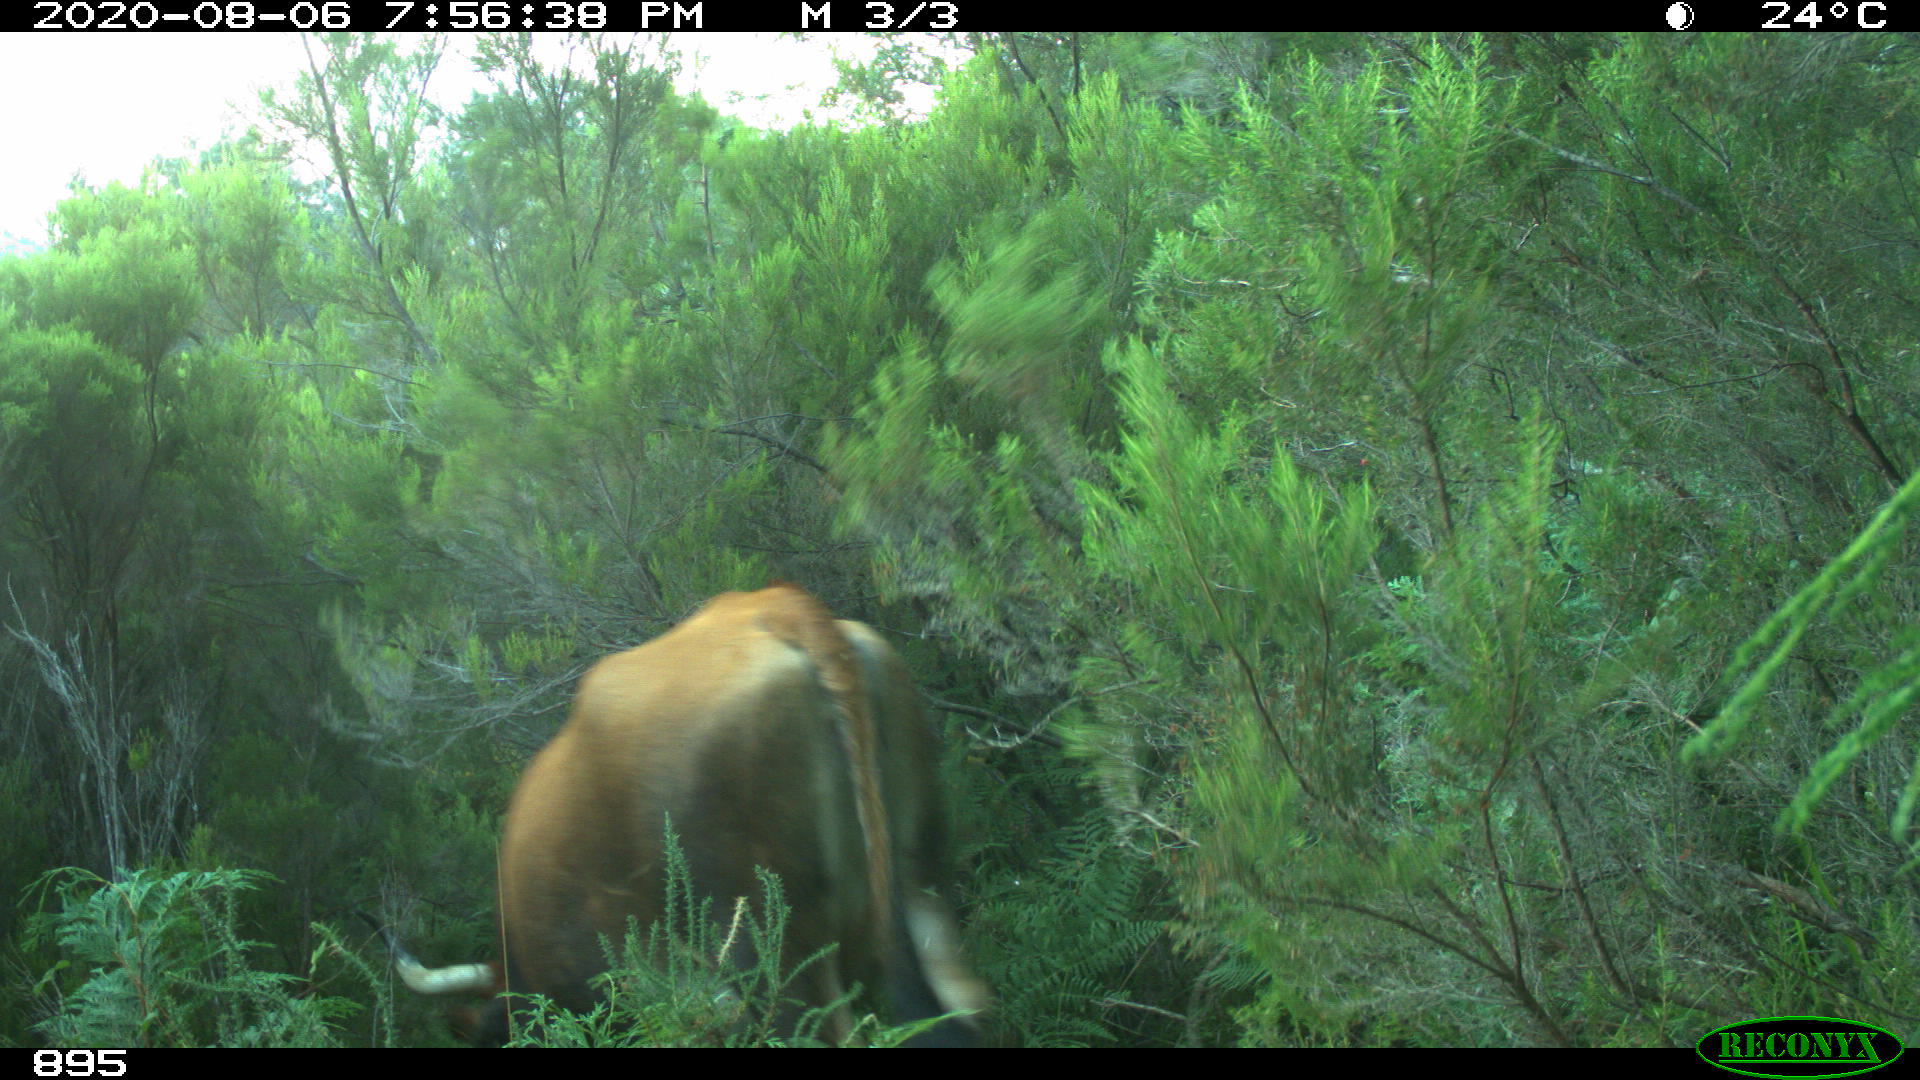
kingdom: Animalia
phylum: Chordata
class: Mammalia
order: Artiodactyla
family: Bovidae
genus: Bos
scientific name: Bos taurus
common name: Domesticated cattle
